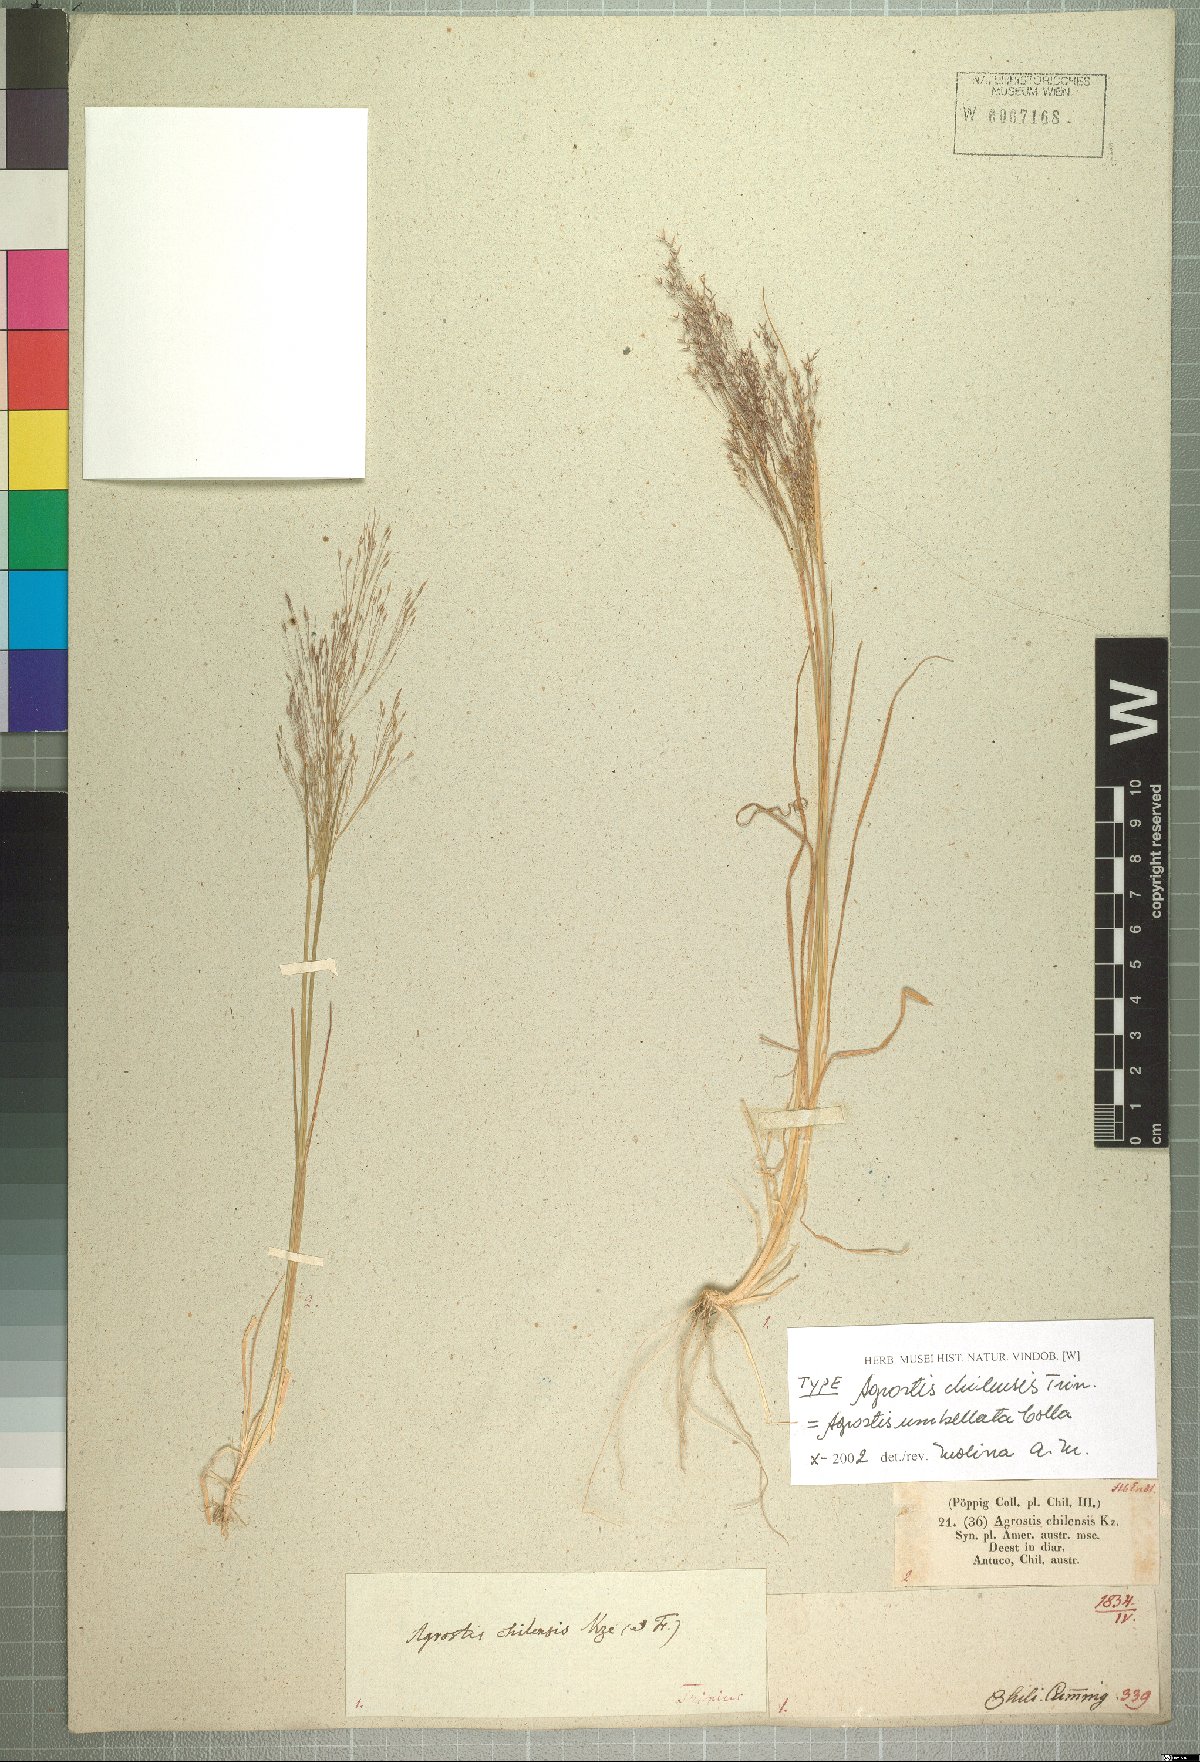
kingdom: Plantae
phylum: Tracheophyta
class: Liliopsida
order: Poales
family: Poaceae
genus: Agrostis
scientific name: Agrostis umbellata
